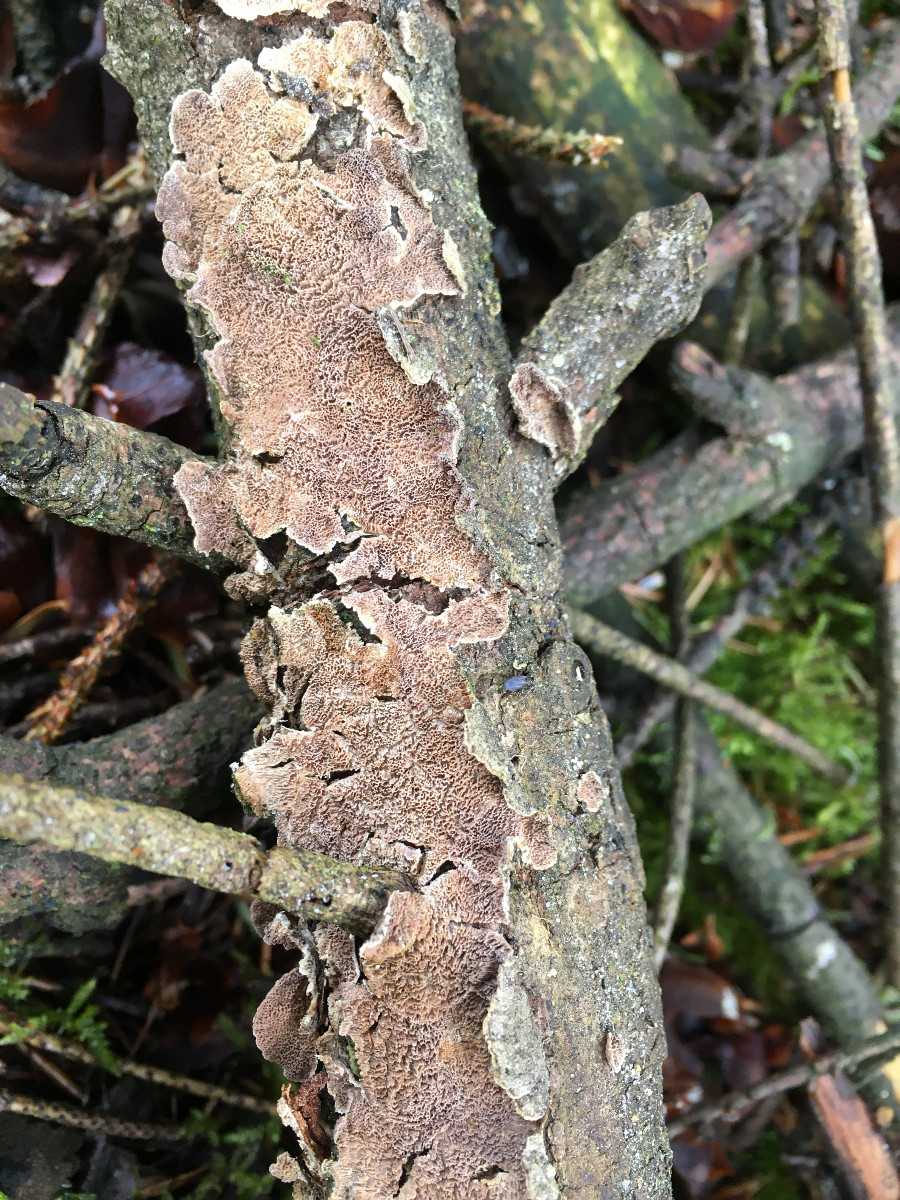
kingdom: Fungi
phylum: Basidiomycota
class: Agaricomycetes
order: Hymenochaetales
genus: Trichaptum
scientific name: Trichaptum abietinum
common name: almindelig violporesvamp
